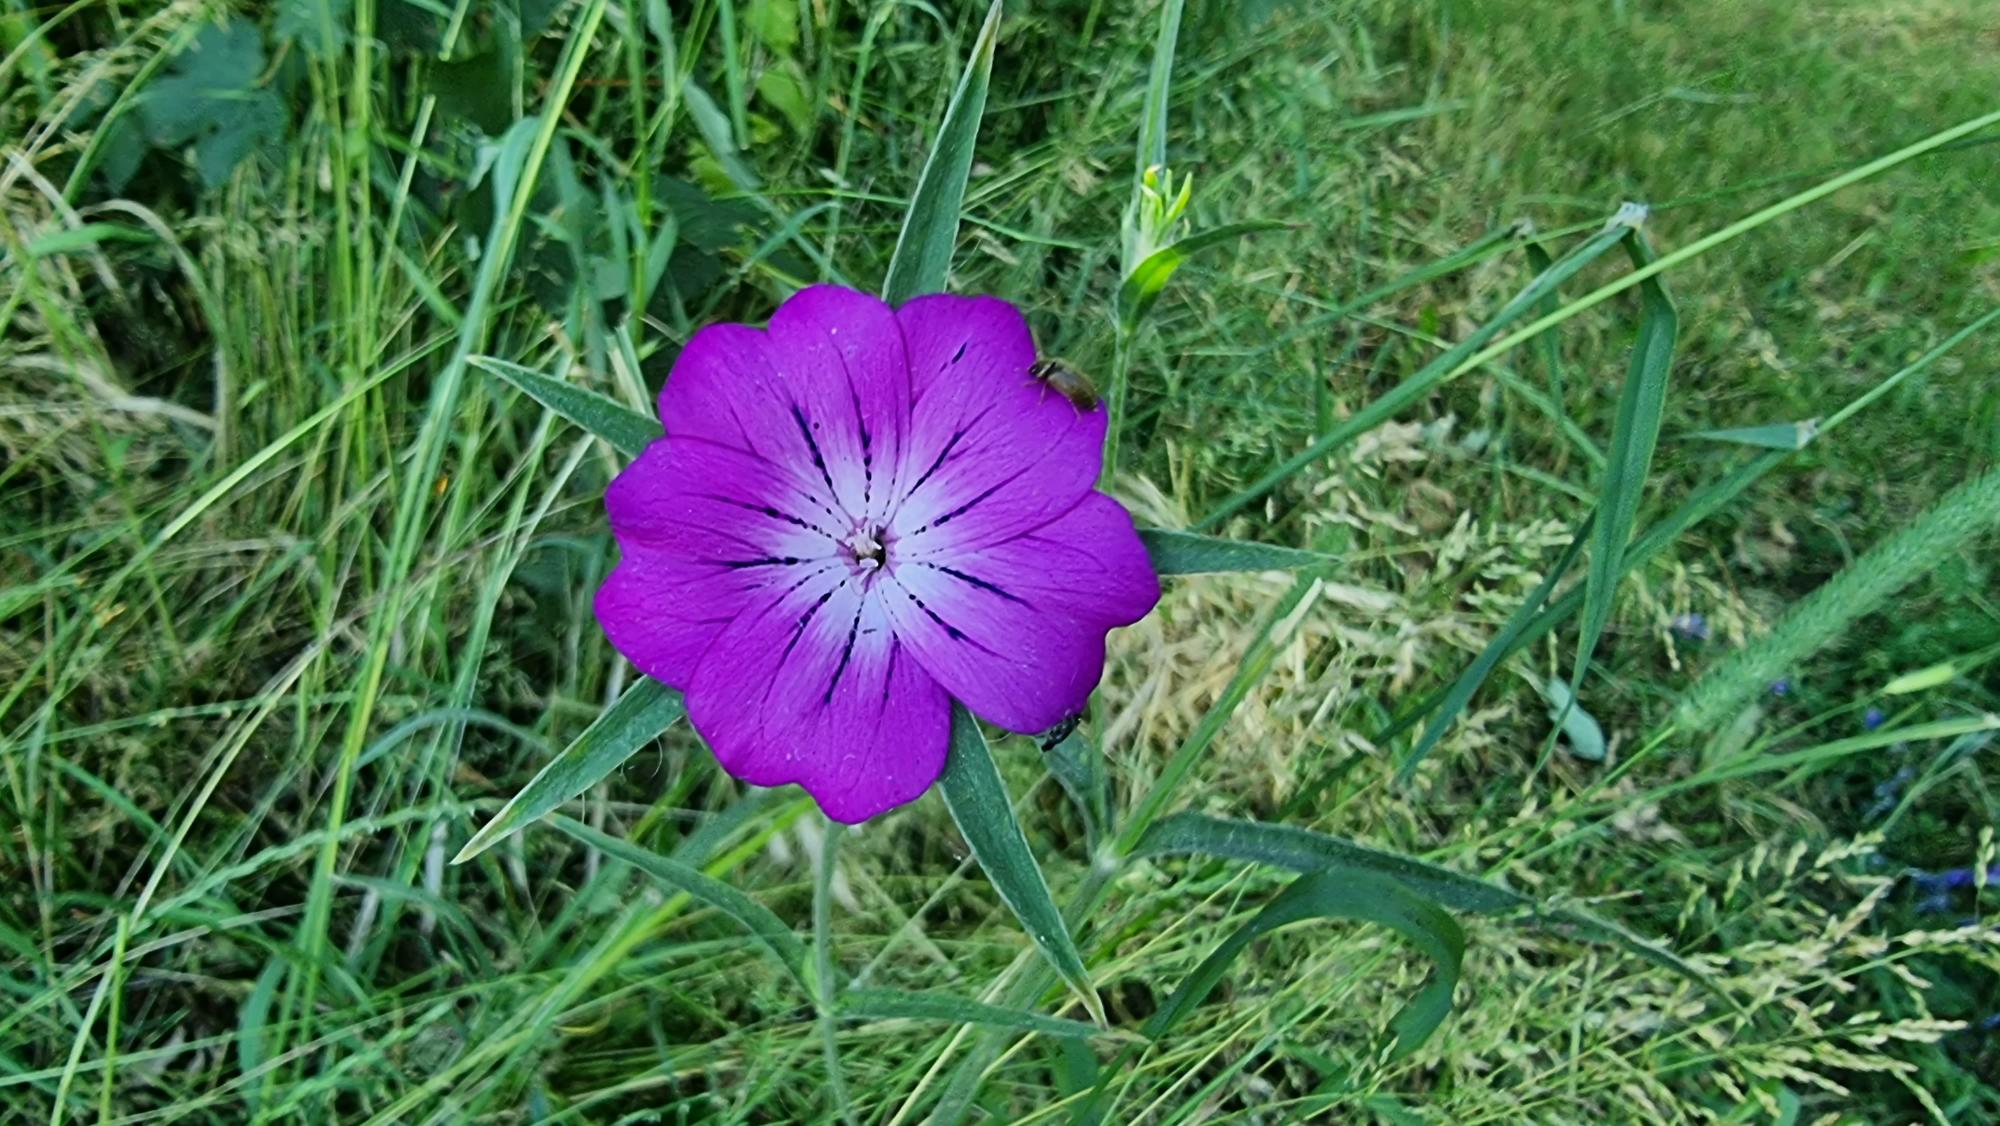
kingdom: Plantae
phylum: Tracheophyta
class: Magnoliopsida
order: Caryophyllales
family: Caryophyllaceae
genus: Agrostemma
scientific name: Agrostemma githago
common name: Klinte
